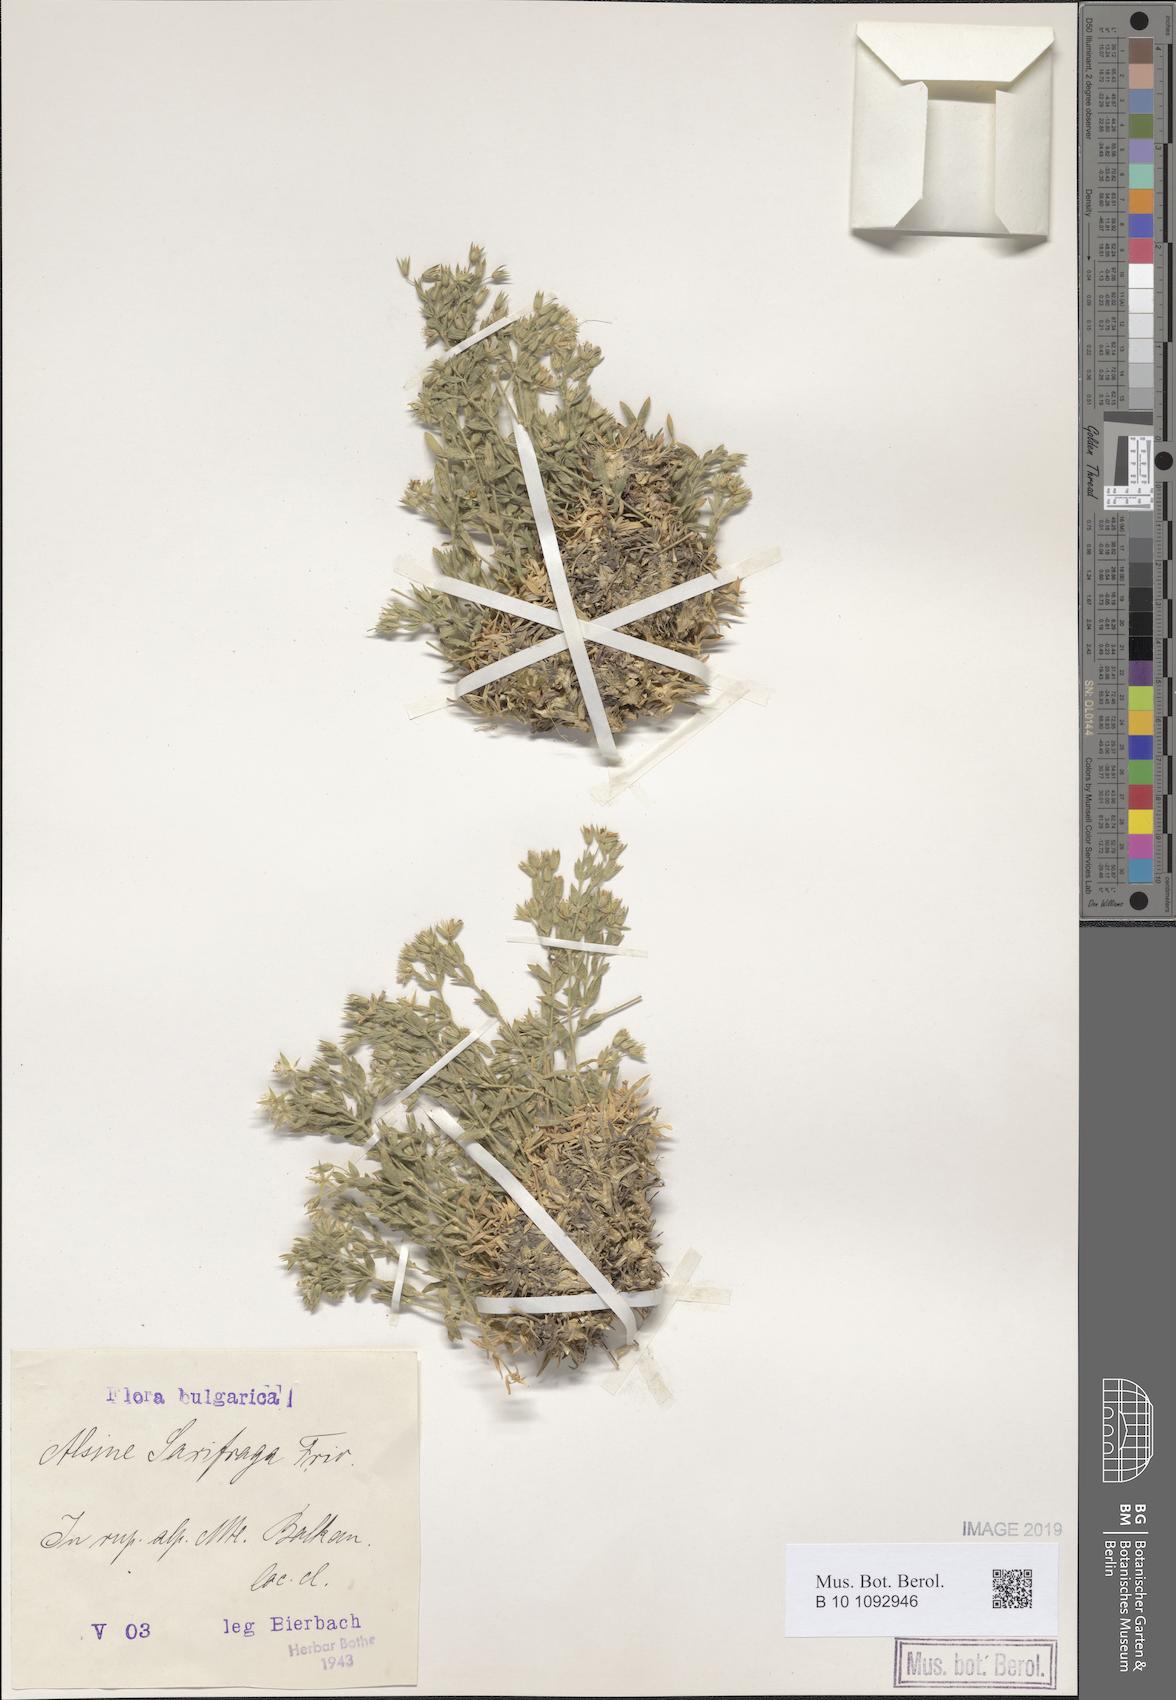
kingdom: Plantae
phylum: Tracheophyta
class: Magnoliopsida
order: Caryophyllales
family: Caryophyllaceae
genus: Mcneillia
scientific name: Mcneillia saxifraga
